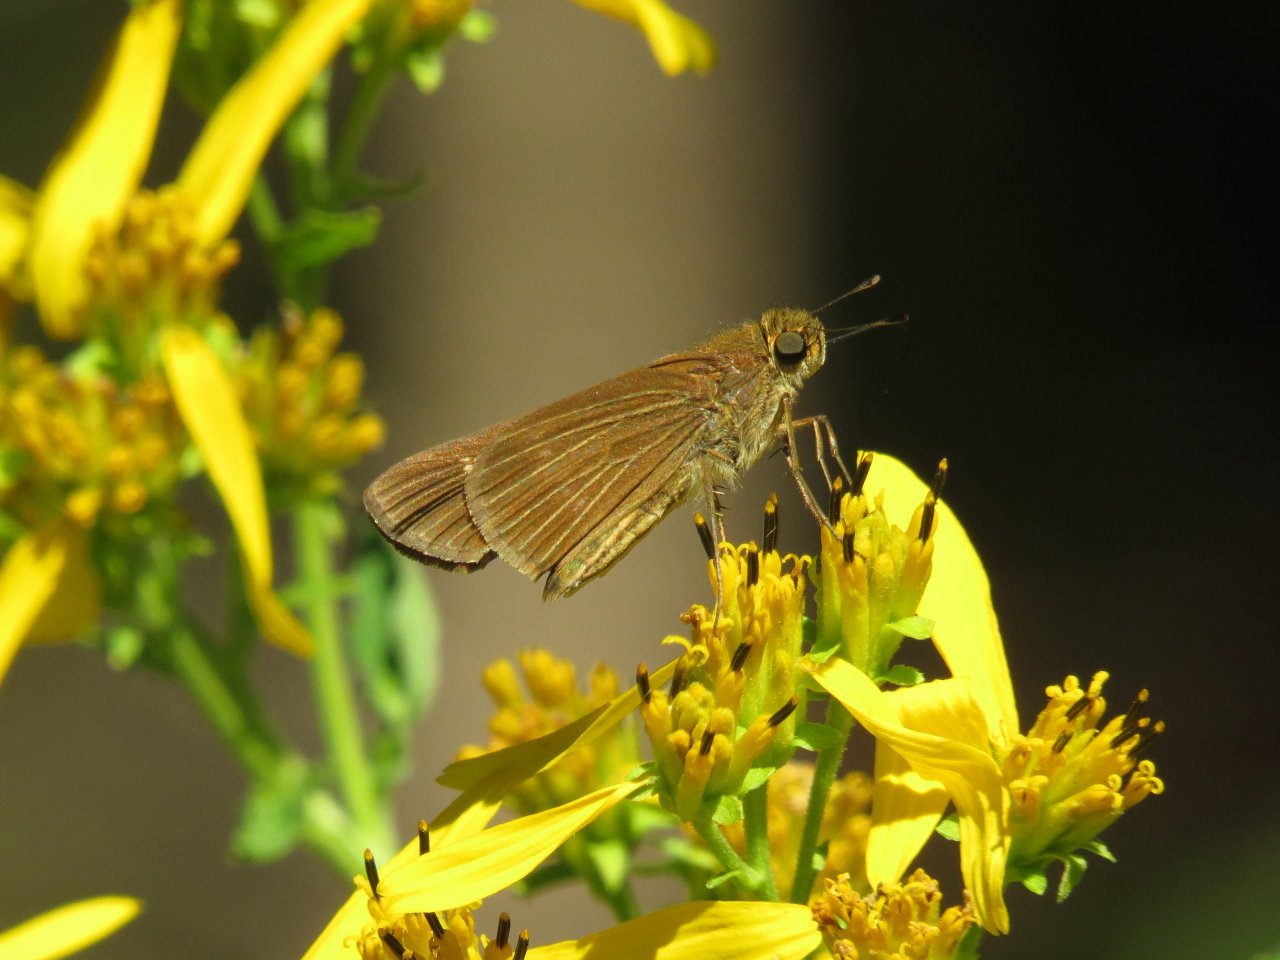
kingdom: Animalia
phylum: Arthropoda
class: Insecta
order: Lepidoptera
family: Hesperiidae
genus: Panoquina
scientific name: Panoquina ocola
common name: Ocola Skipper
